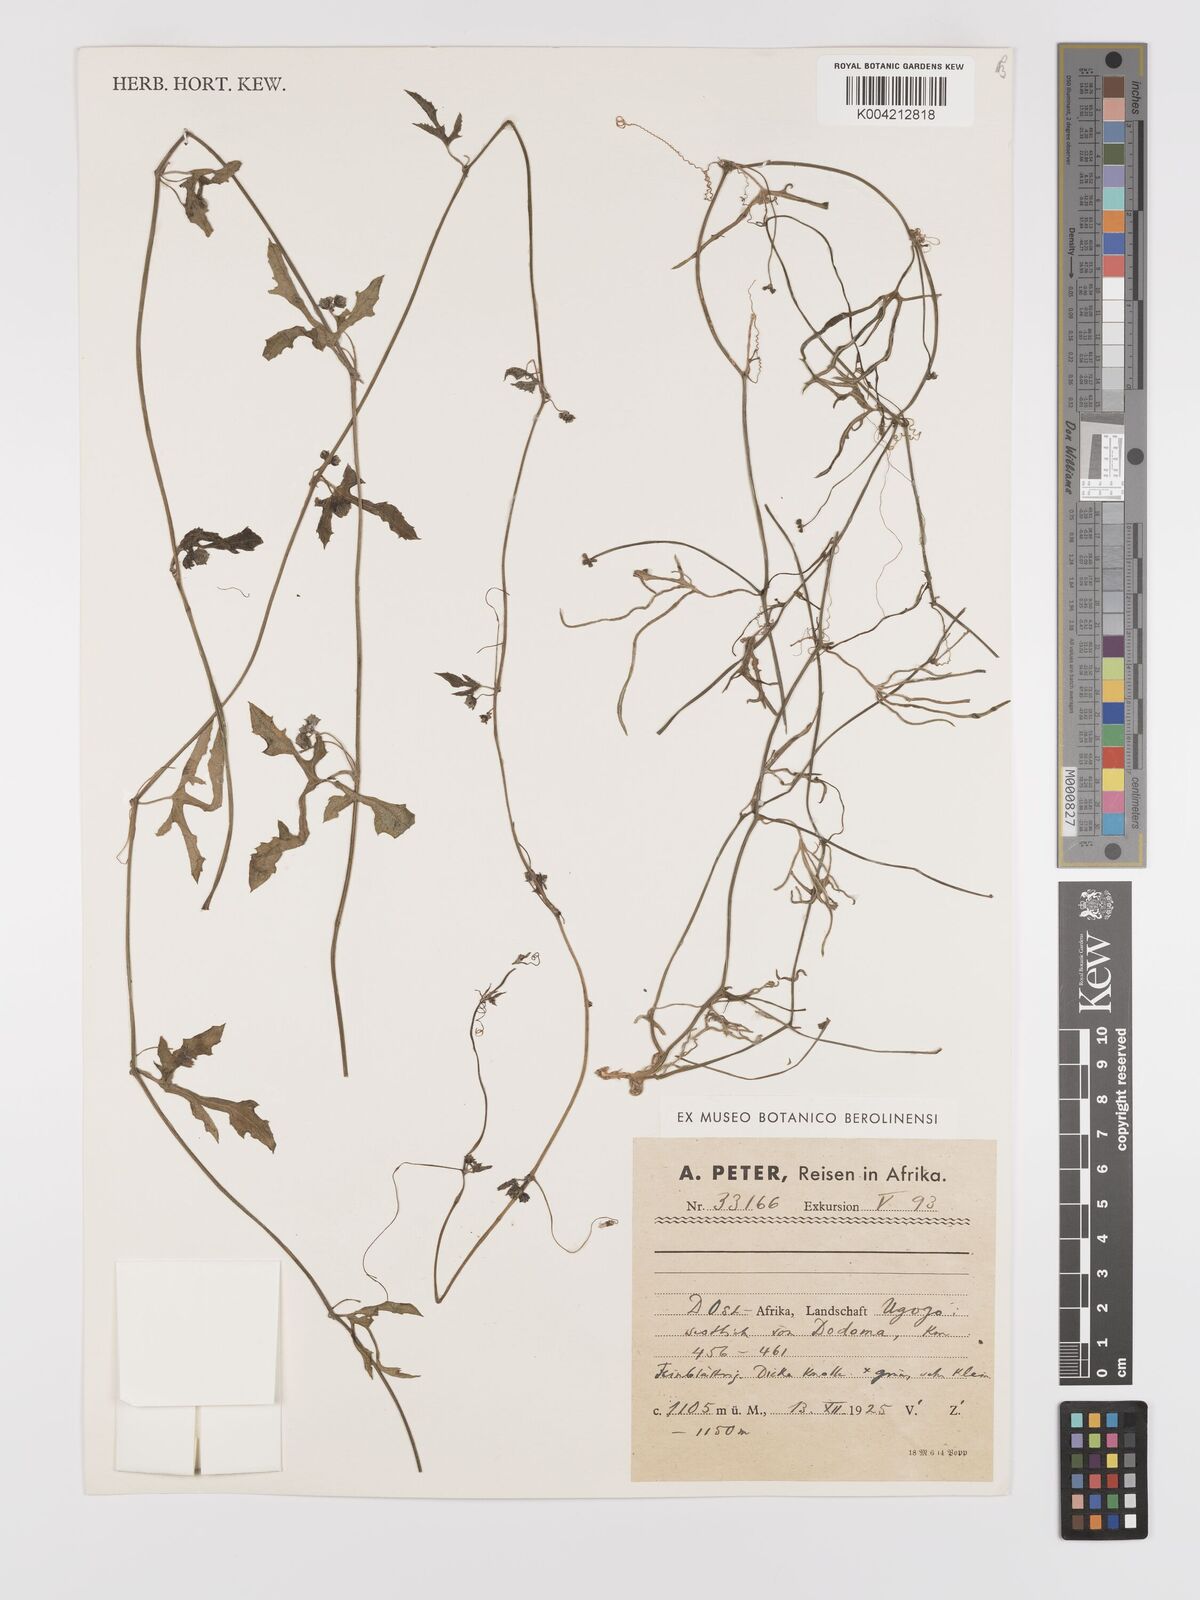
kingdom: Plantae
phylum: Tracheophyta
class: Magnoliopsida
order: Cucurbitales
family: Cucurbitaceae
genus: Corallocarpus
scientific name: Corallocarpus tenuissimus
